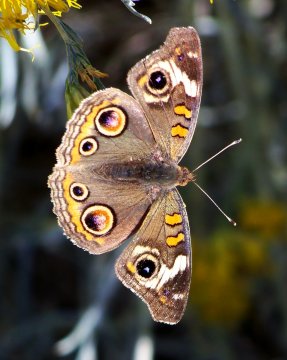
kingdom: Animalia
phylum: Arthropoda
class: Insecta
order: Lepidoptera
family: Nymphalidae
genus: Junonia
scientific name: Junonia coenia
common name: Common Buckeye
